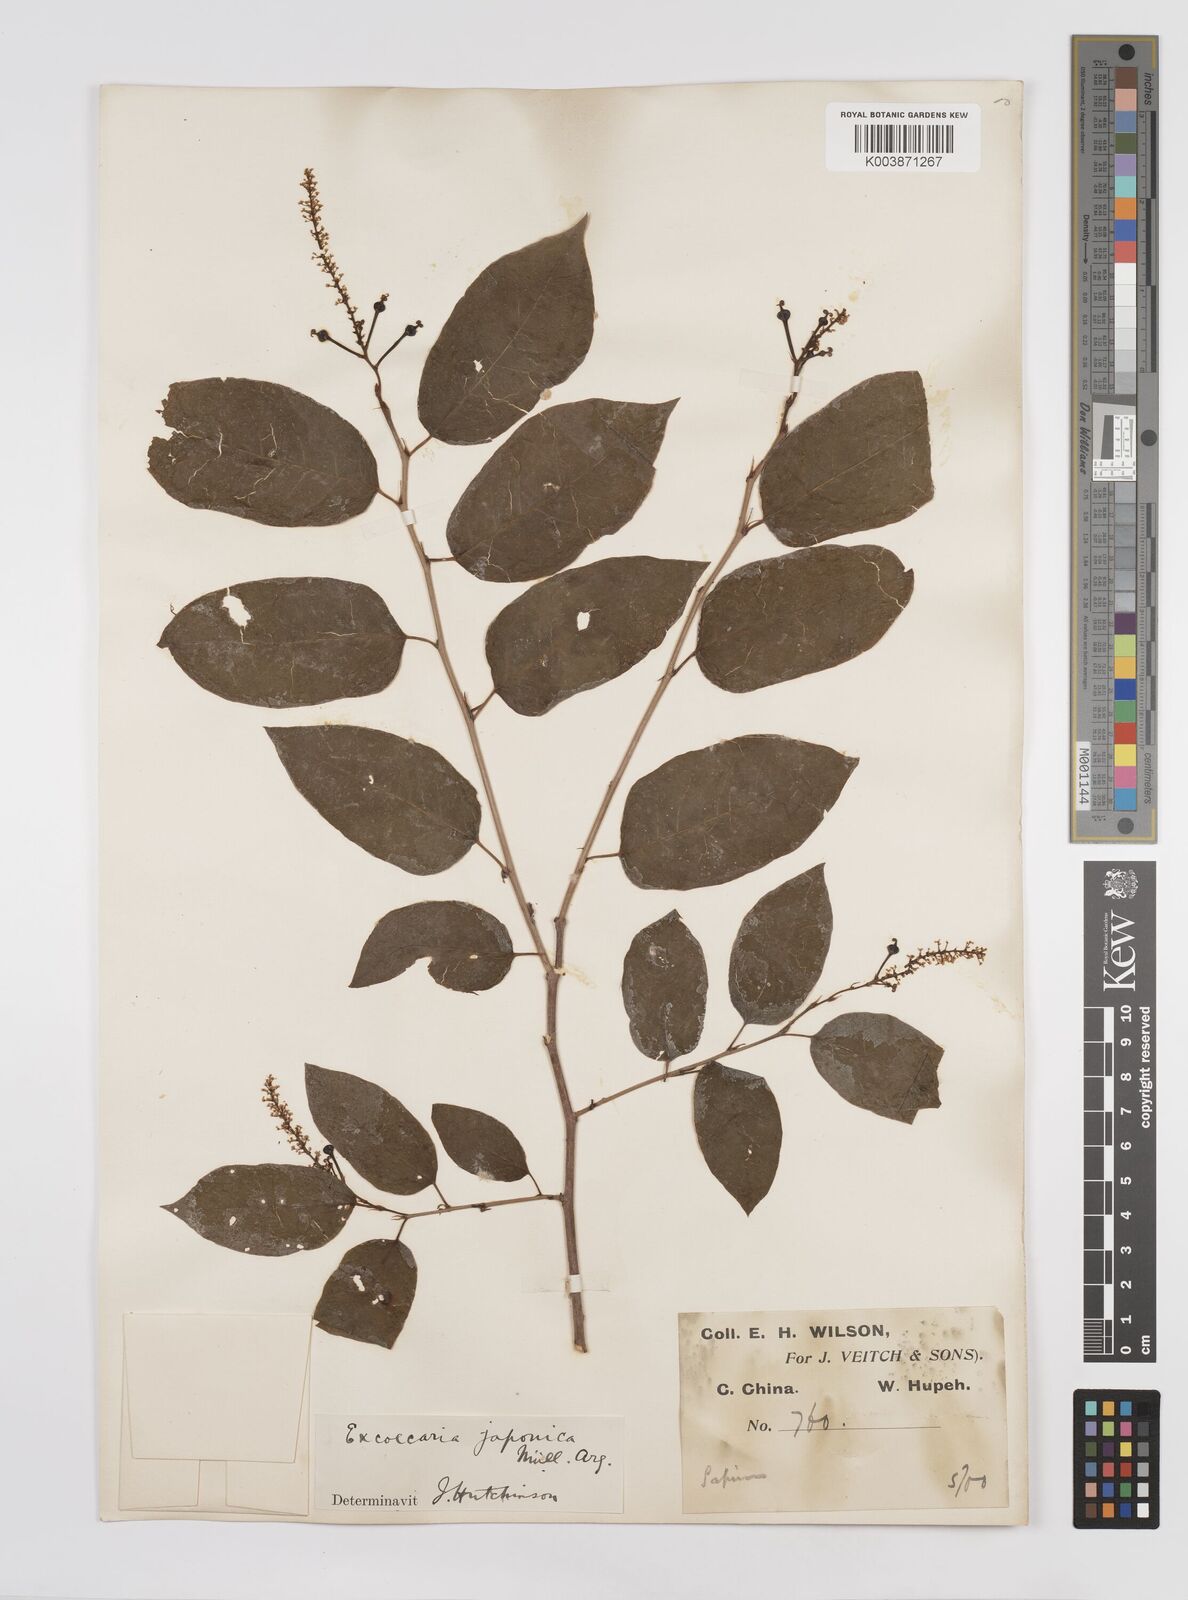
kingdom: Plantae
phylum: Tracheophyta
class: Magnoliopsida
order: Malpighiales
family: Euphorbiaceae
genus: Neoshirakia
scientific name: Neoshirakia japonica
